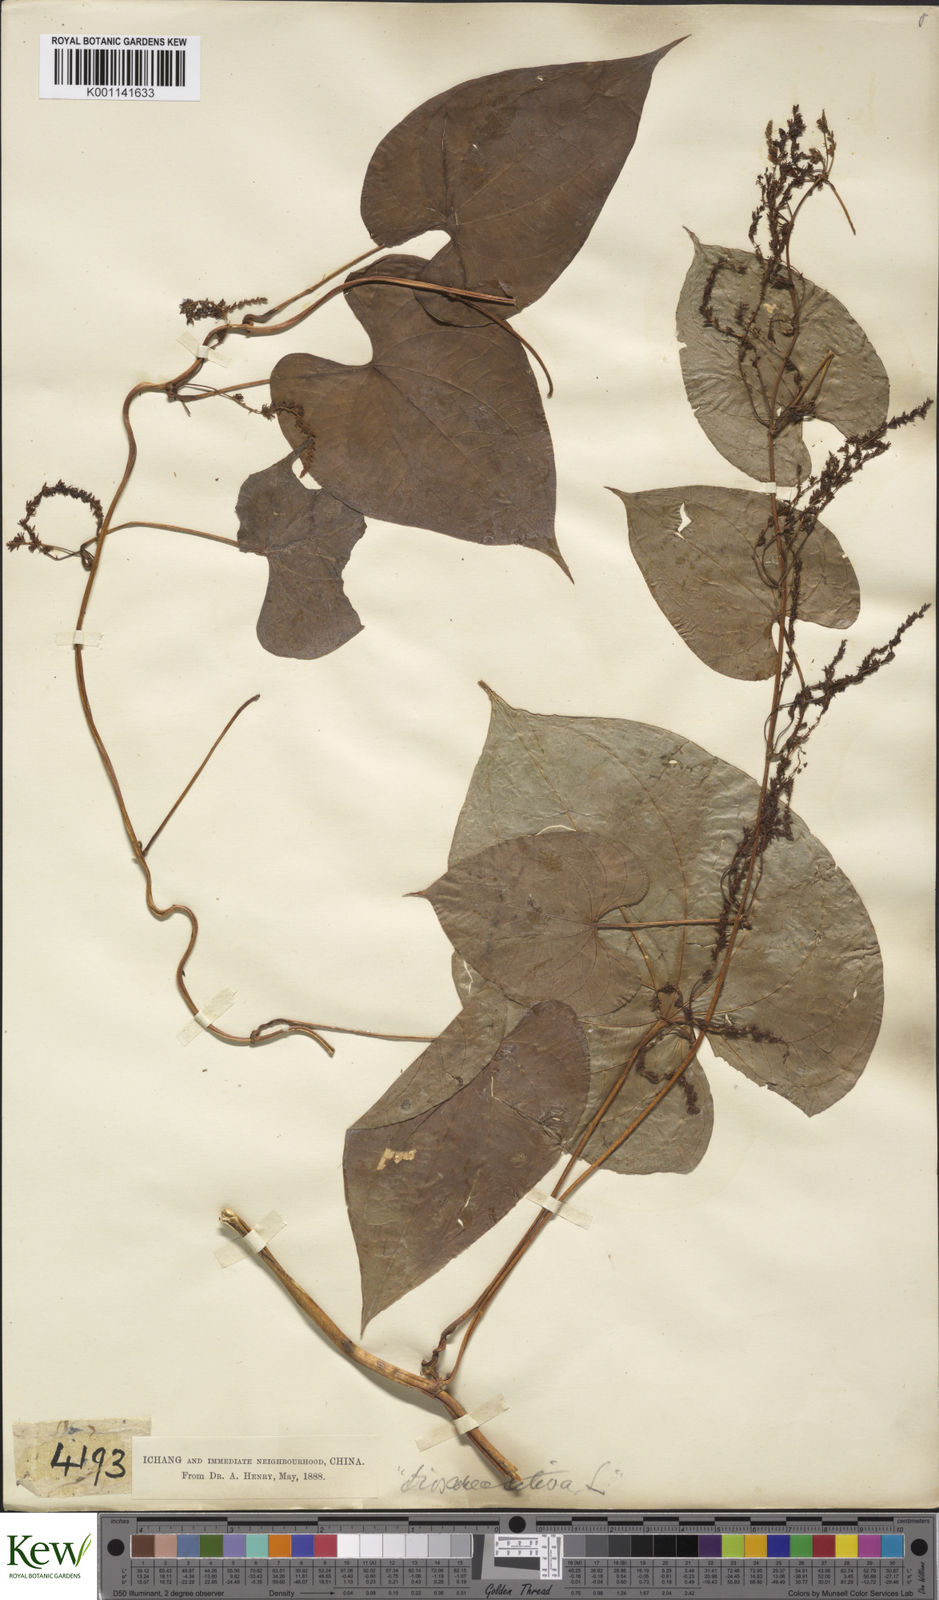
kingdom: Plantae
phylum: Tracheophyta
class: Liliopsida
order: Dioscoreales
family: Dioscoreaceae
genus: Dioscorea
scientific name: Dioscorea bulbifera
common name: Air yam
